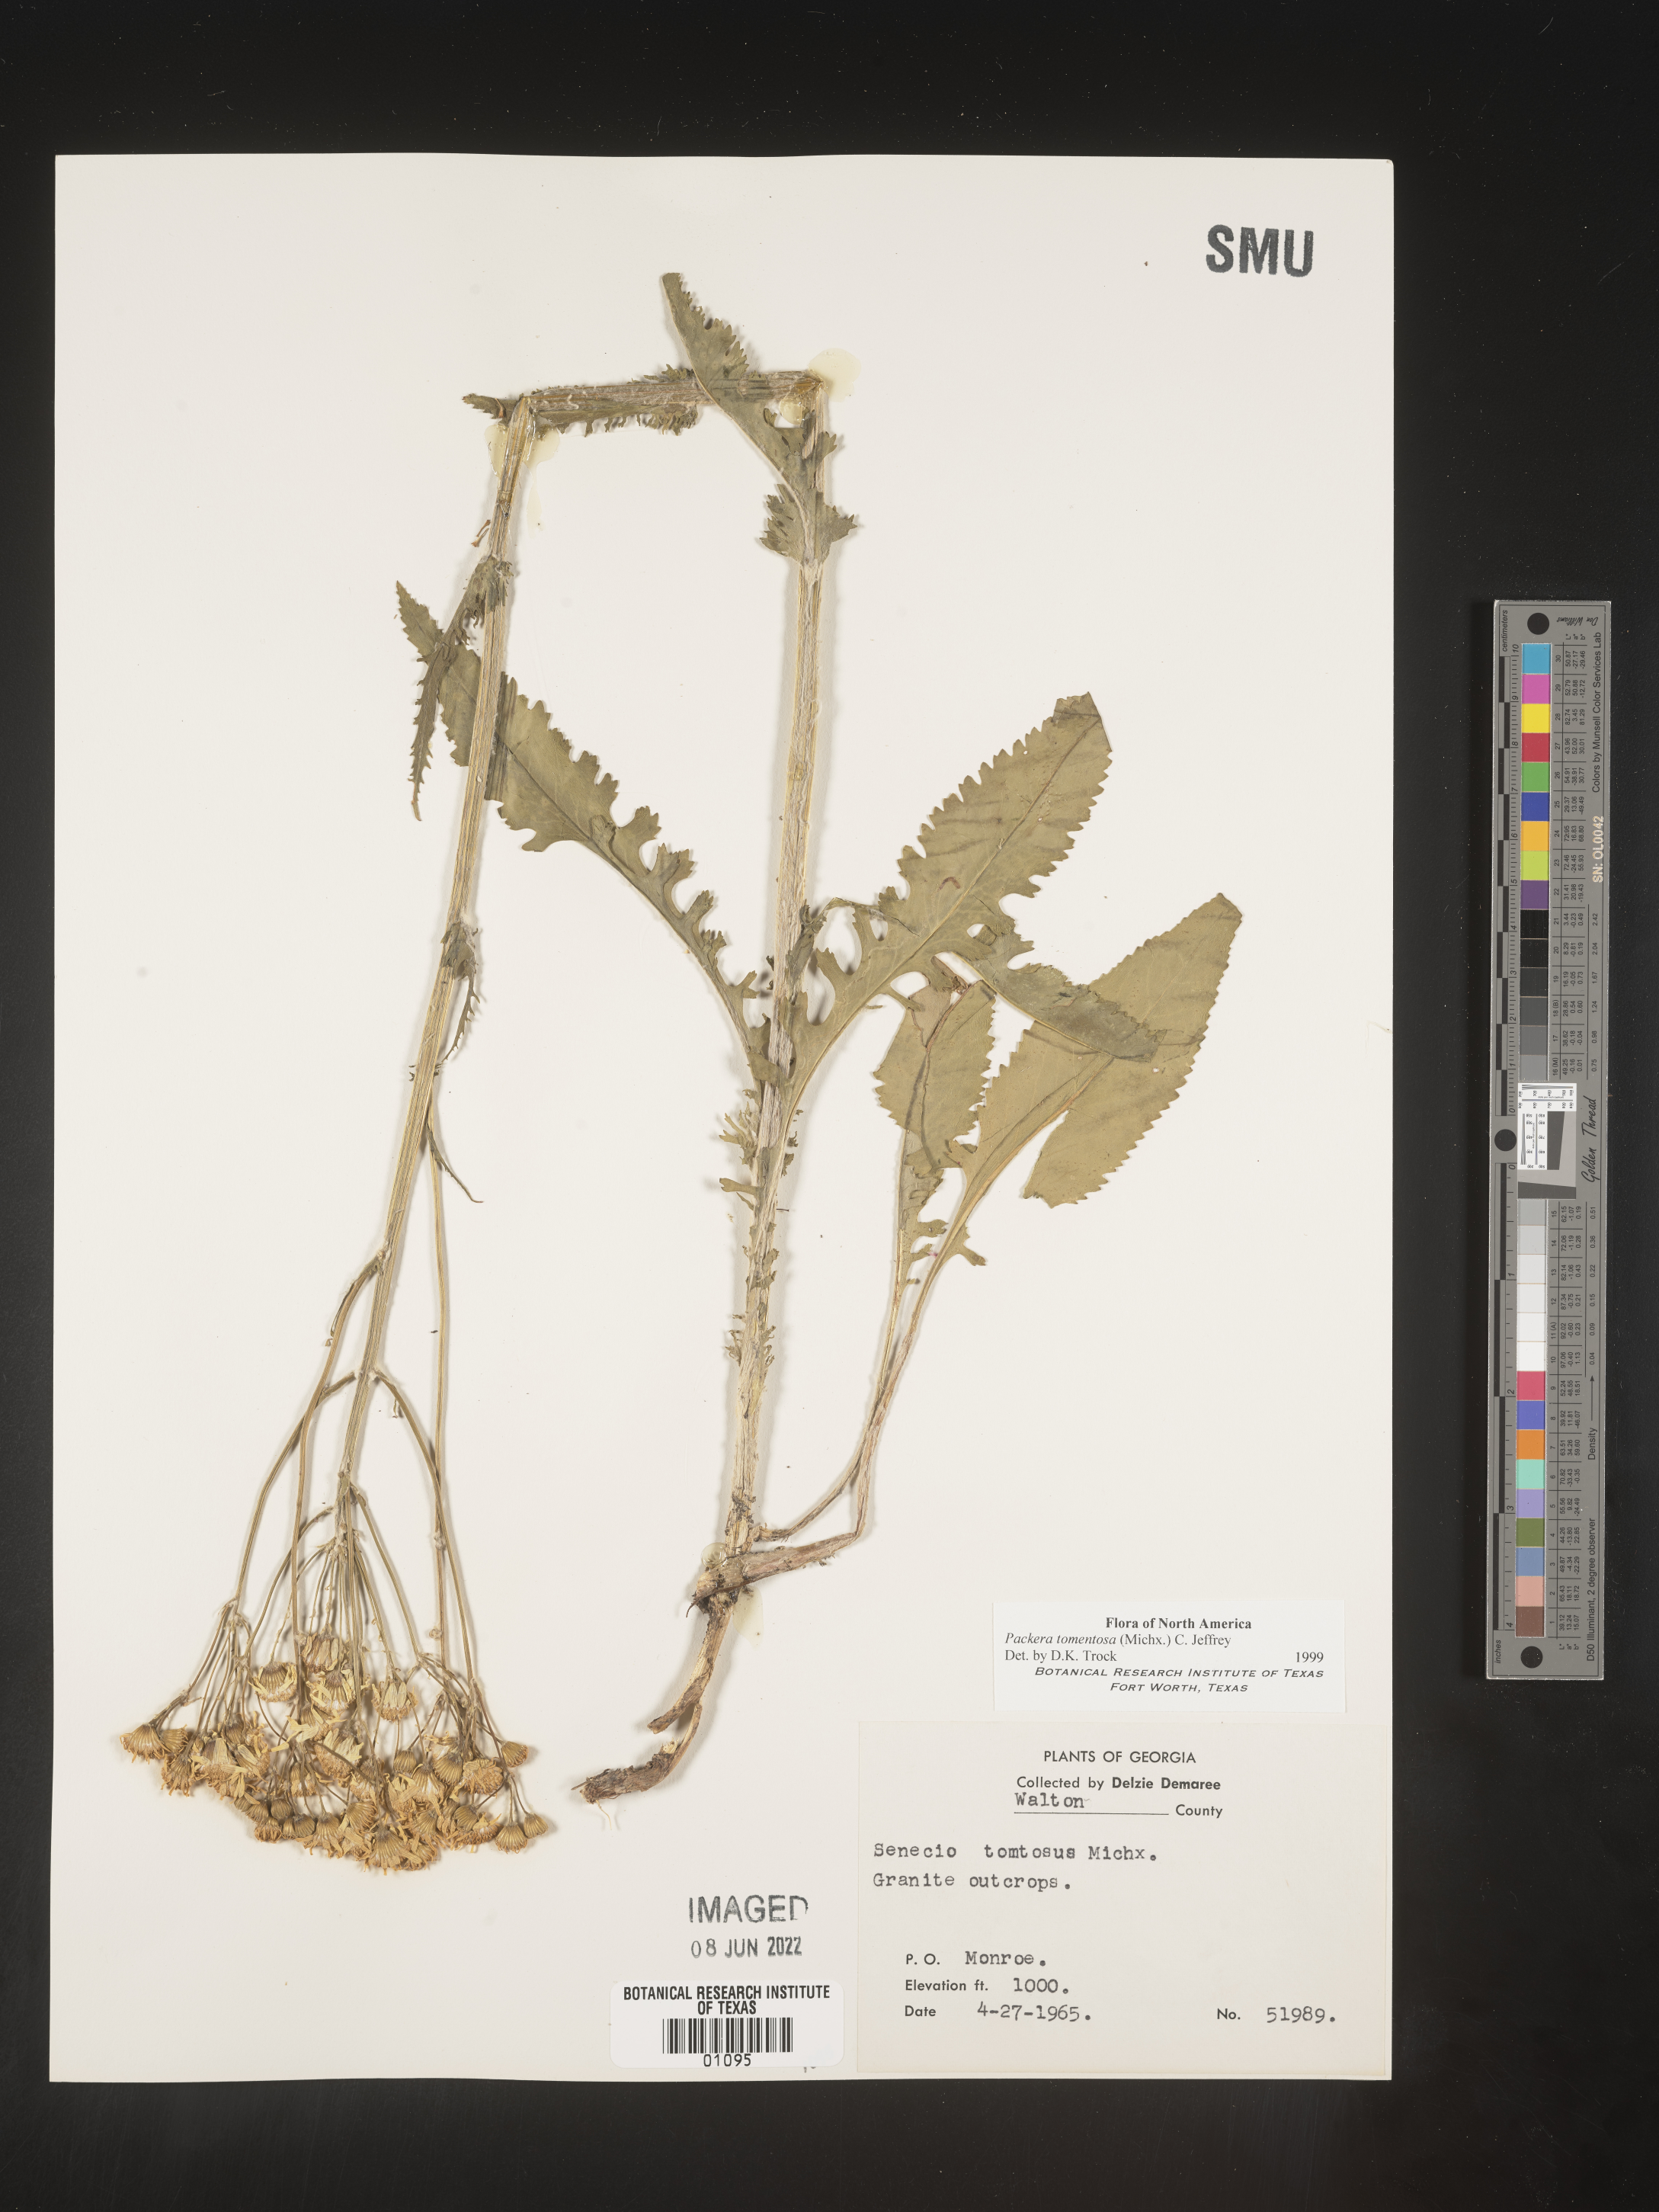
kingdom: Plantae
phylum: Tracheophyta
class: Magnoliopsida
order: Asterales
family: Asteraceae
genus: Packera
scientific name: Packera dubia
